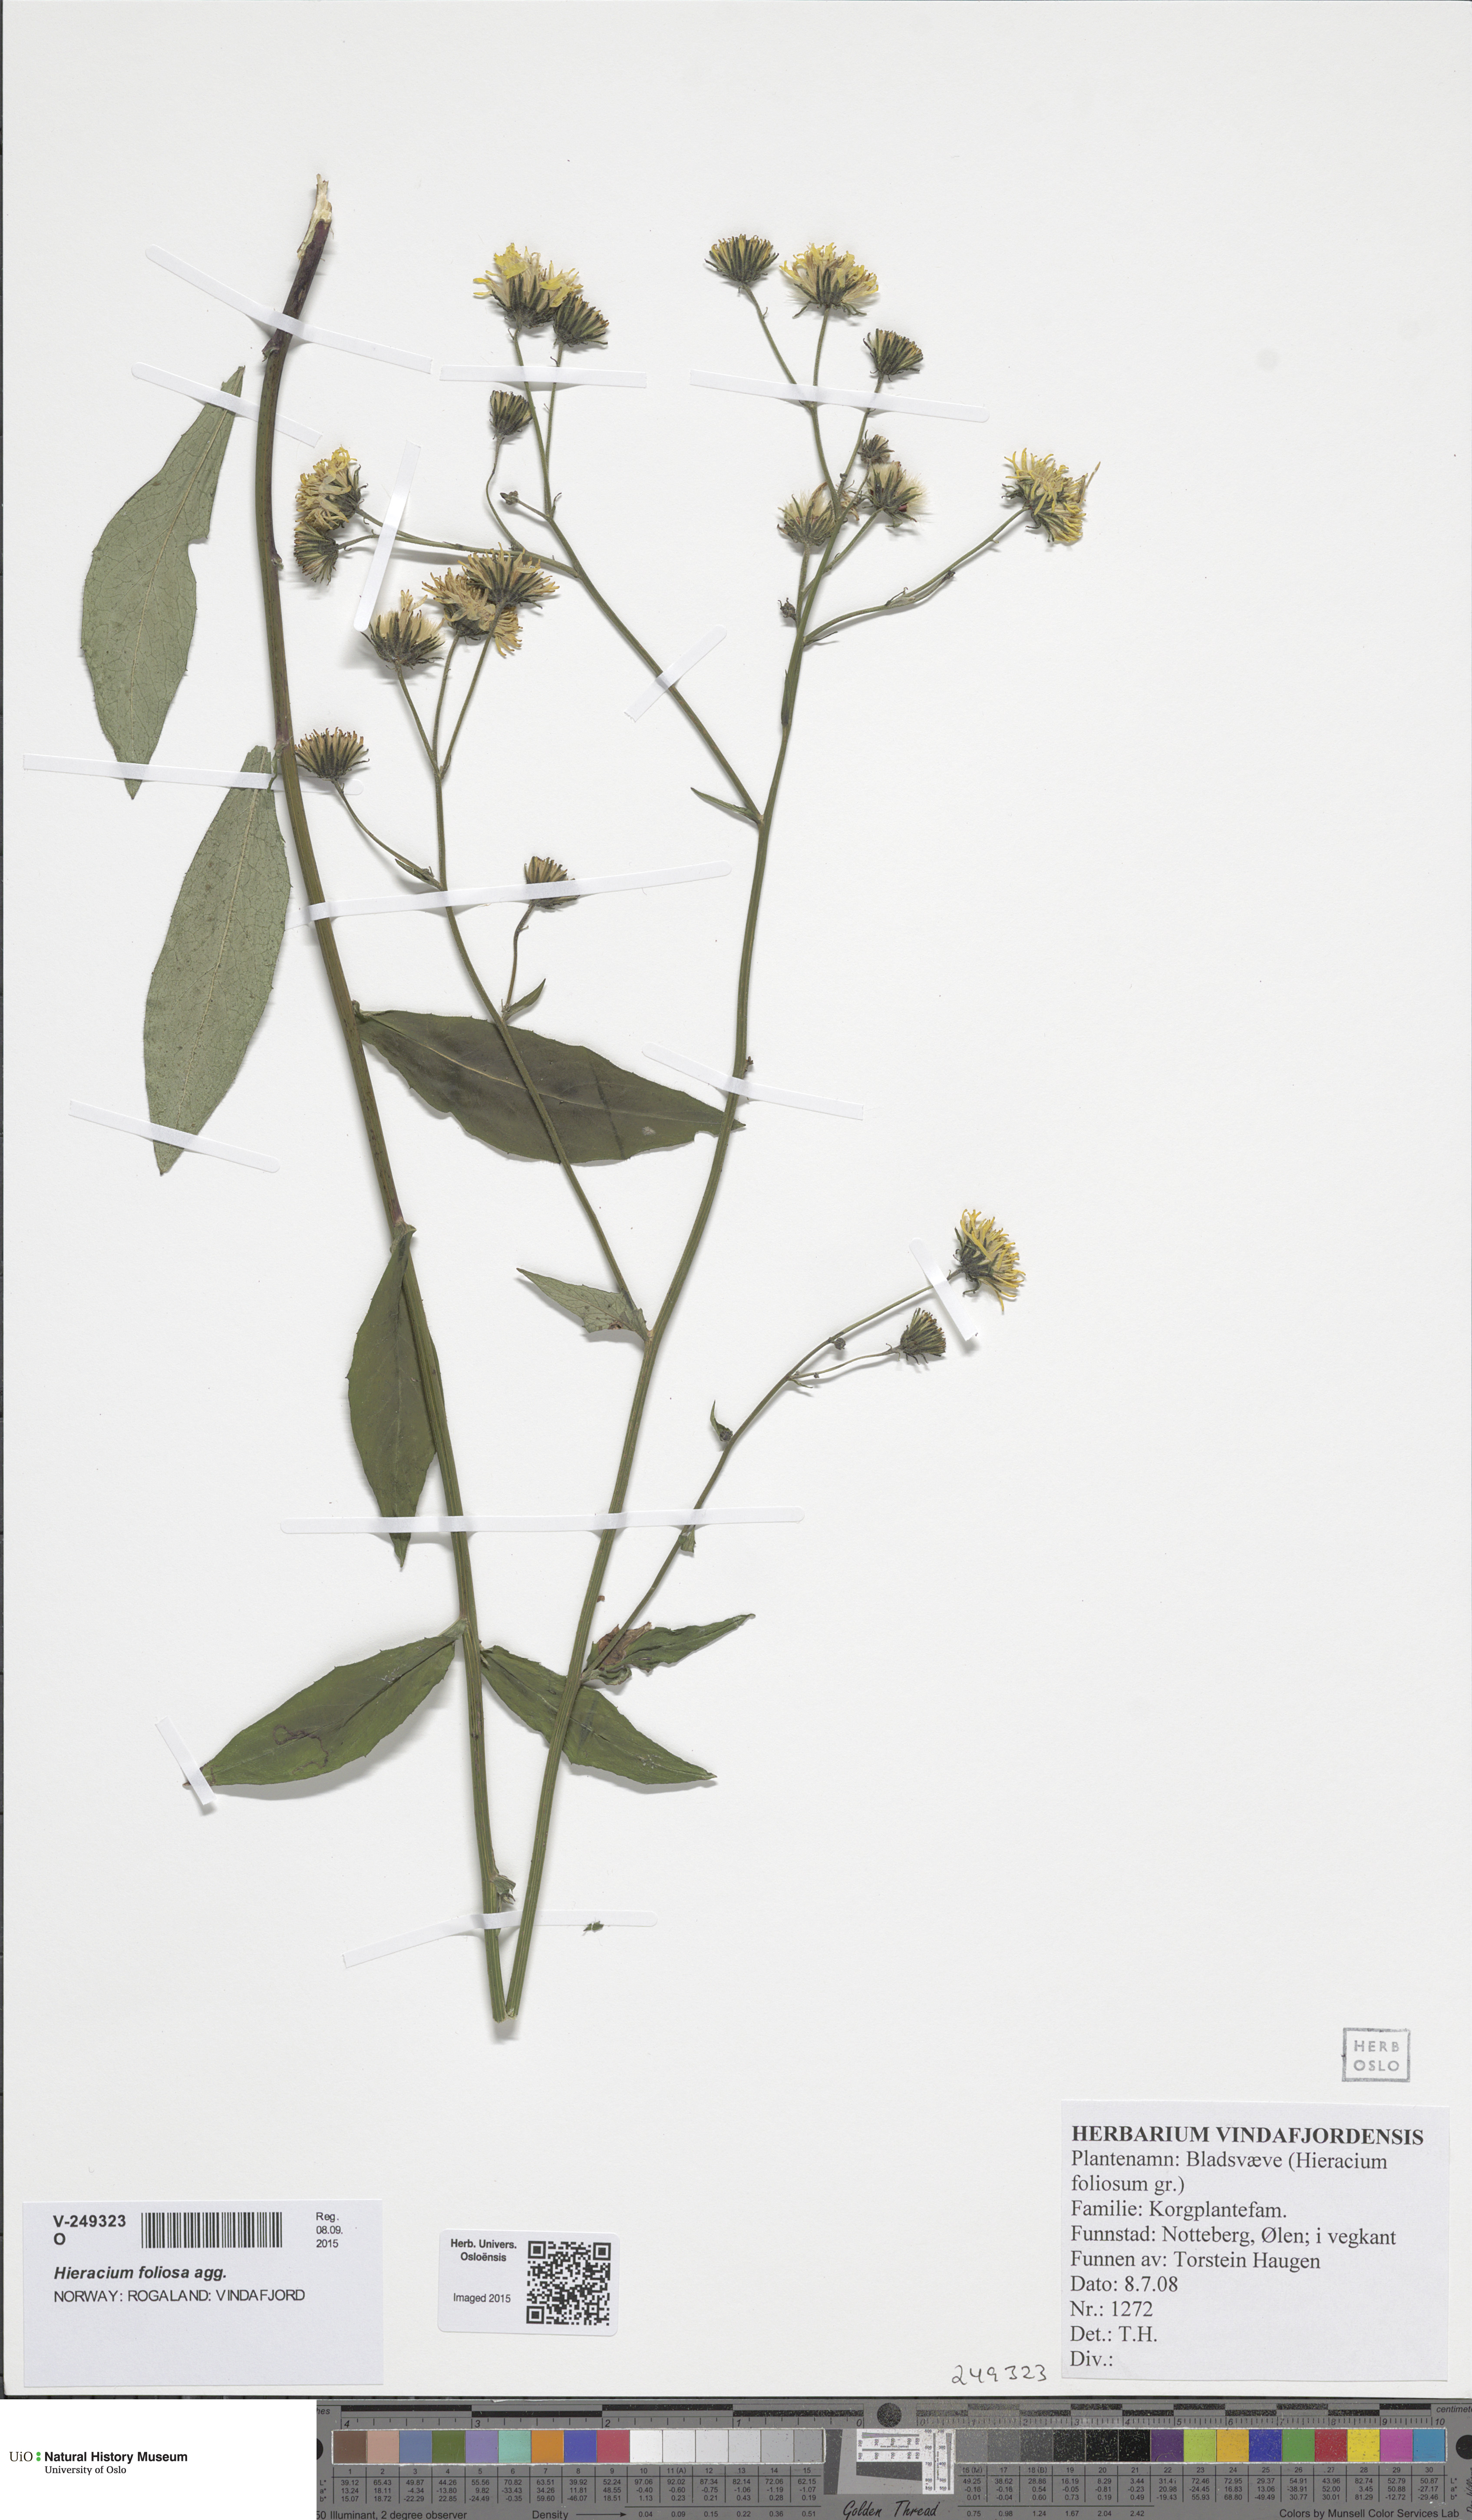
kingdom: Plantae
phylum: Tracheophyta
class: Magnoliopsida
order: Asterales
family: Asteraceae
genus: Hieracium
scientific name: Hieracium
